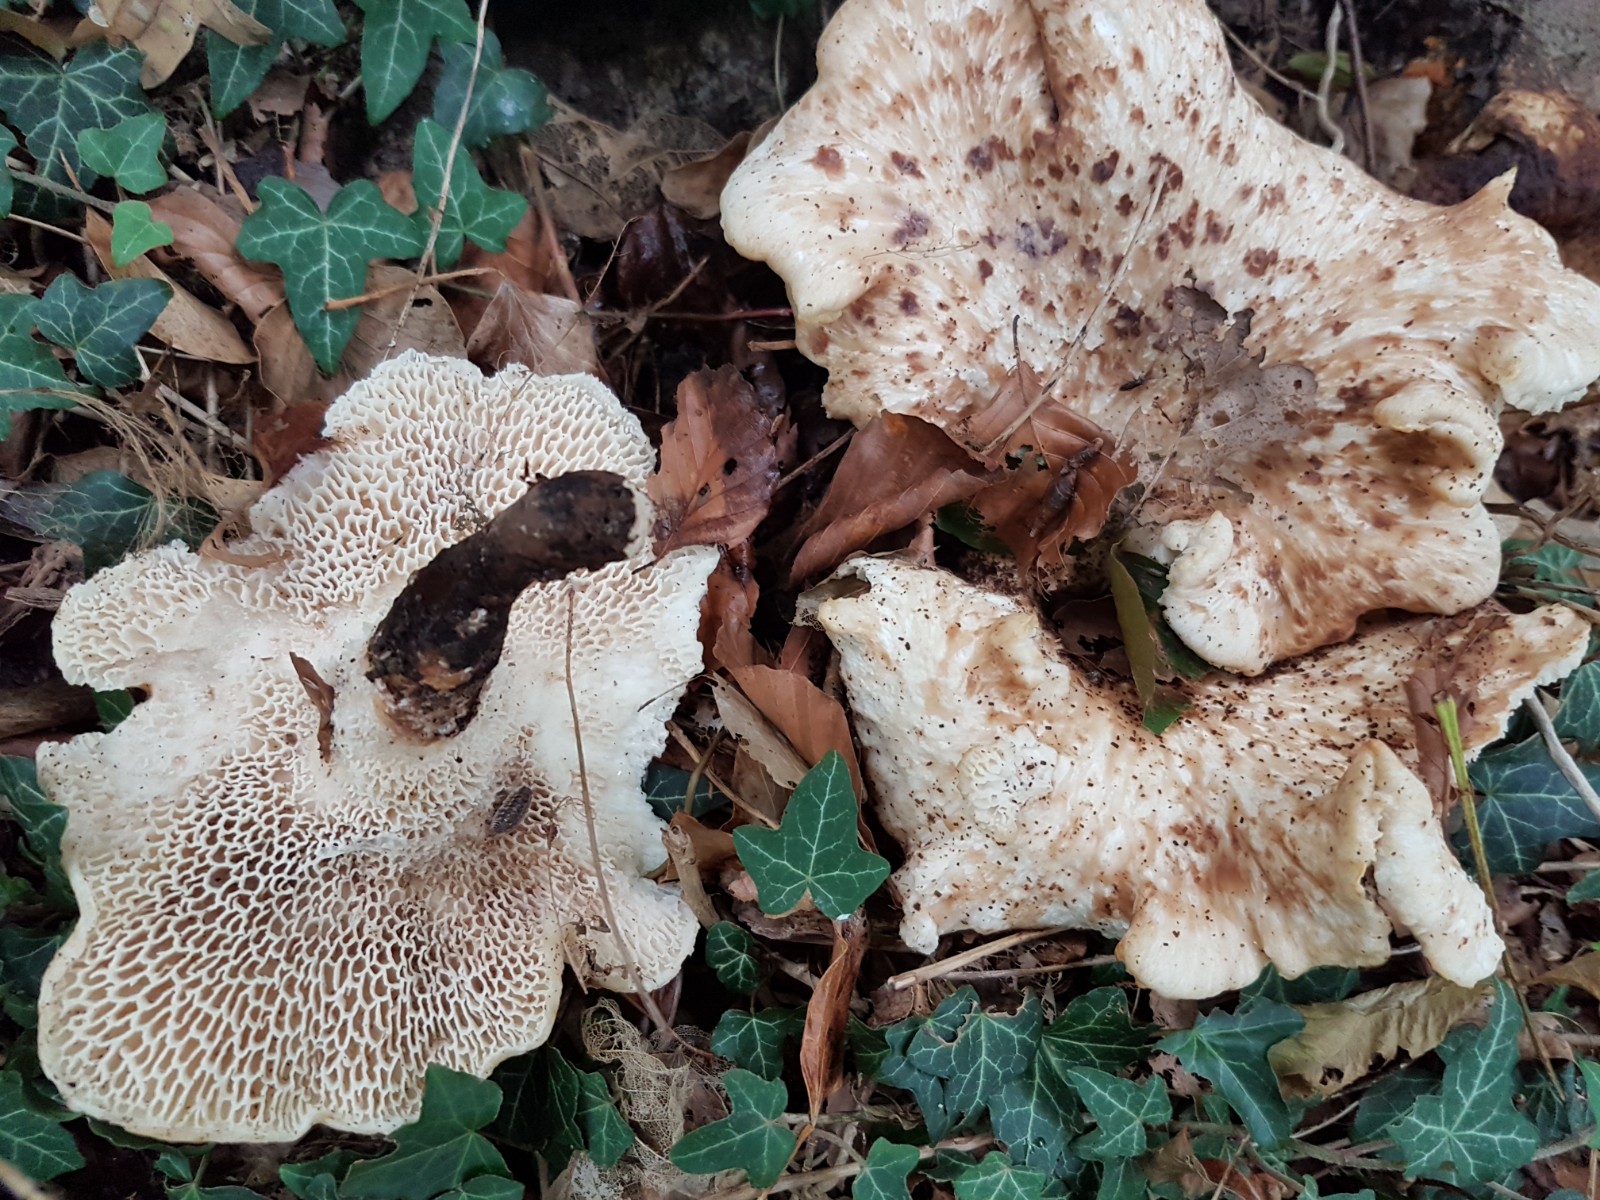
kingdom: Fungi
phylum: Basidiomycota
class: Agaricomycetes
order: Polyporales
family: Polyporaceae
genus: Polyporus
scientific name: Polyporus tuberaster
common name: knoldet stilkporesvamp
